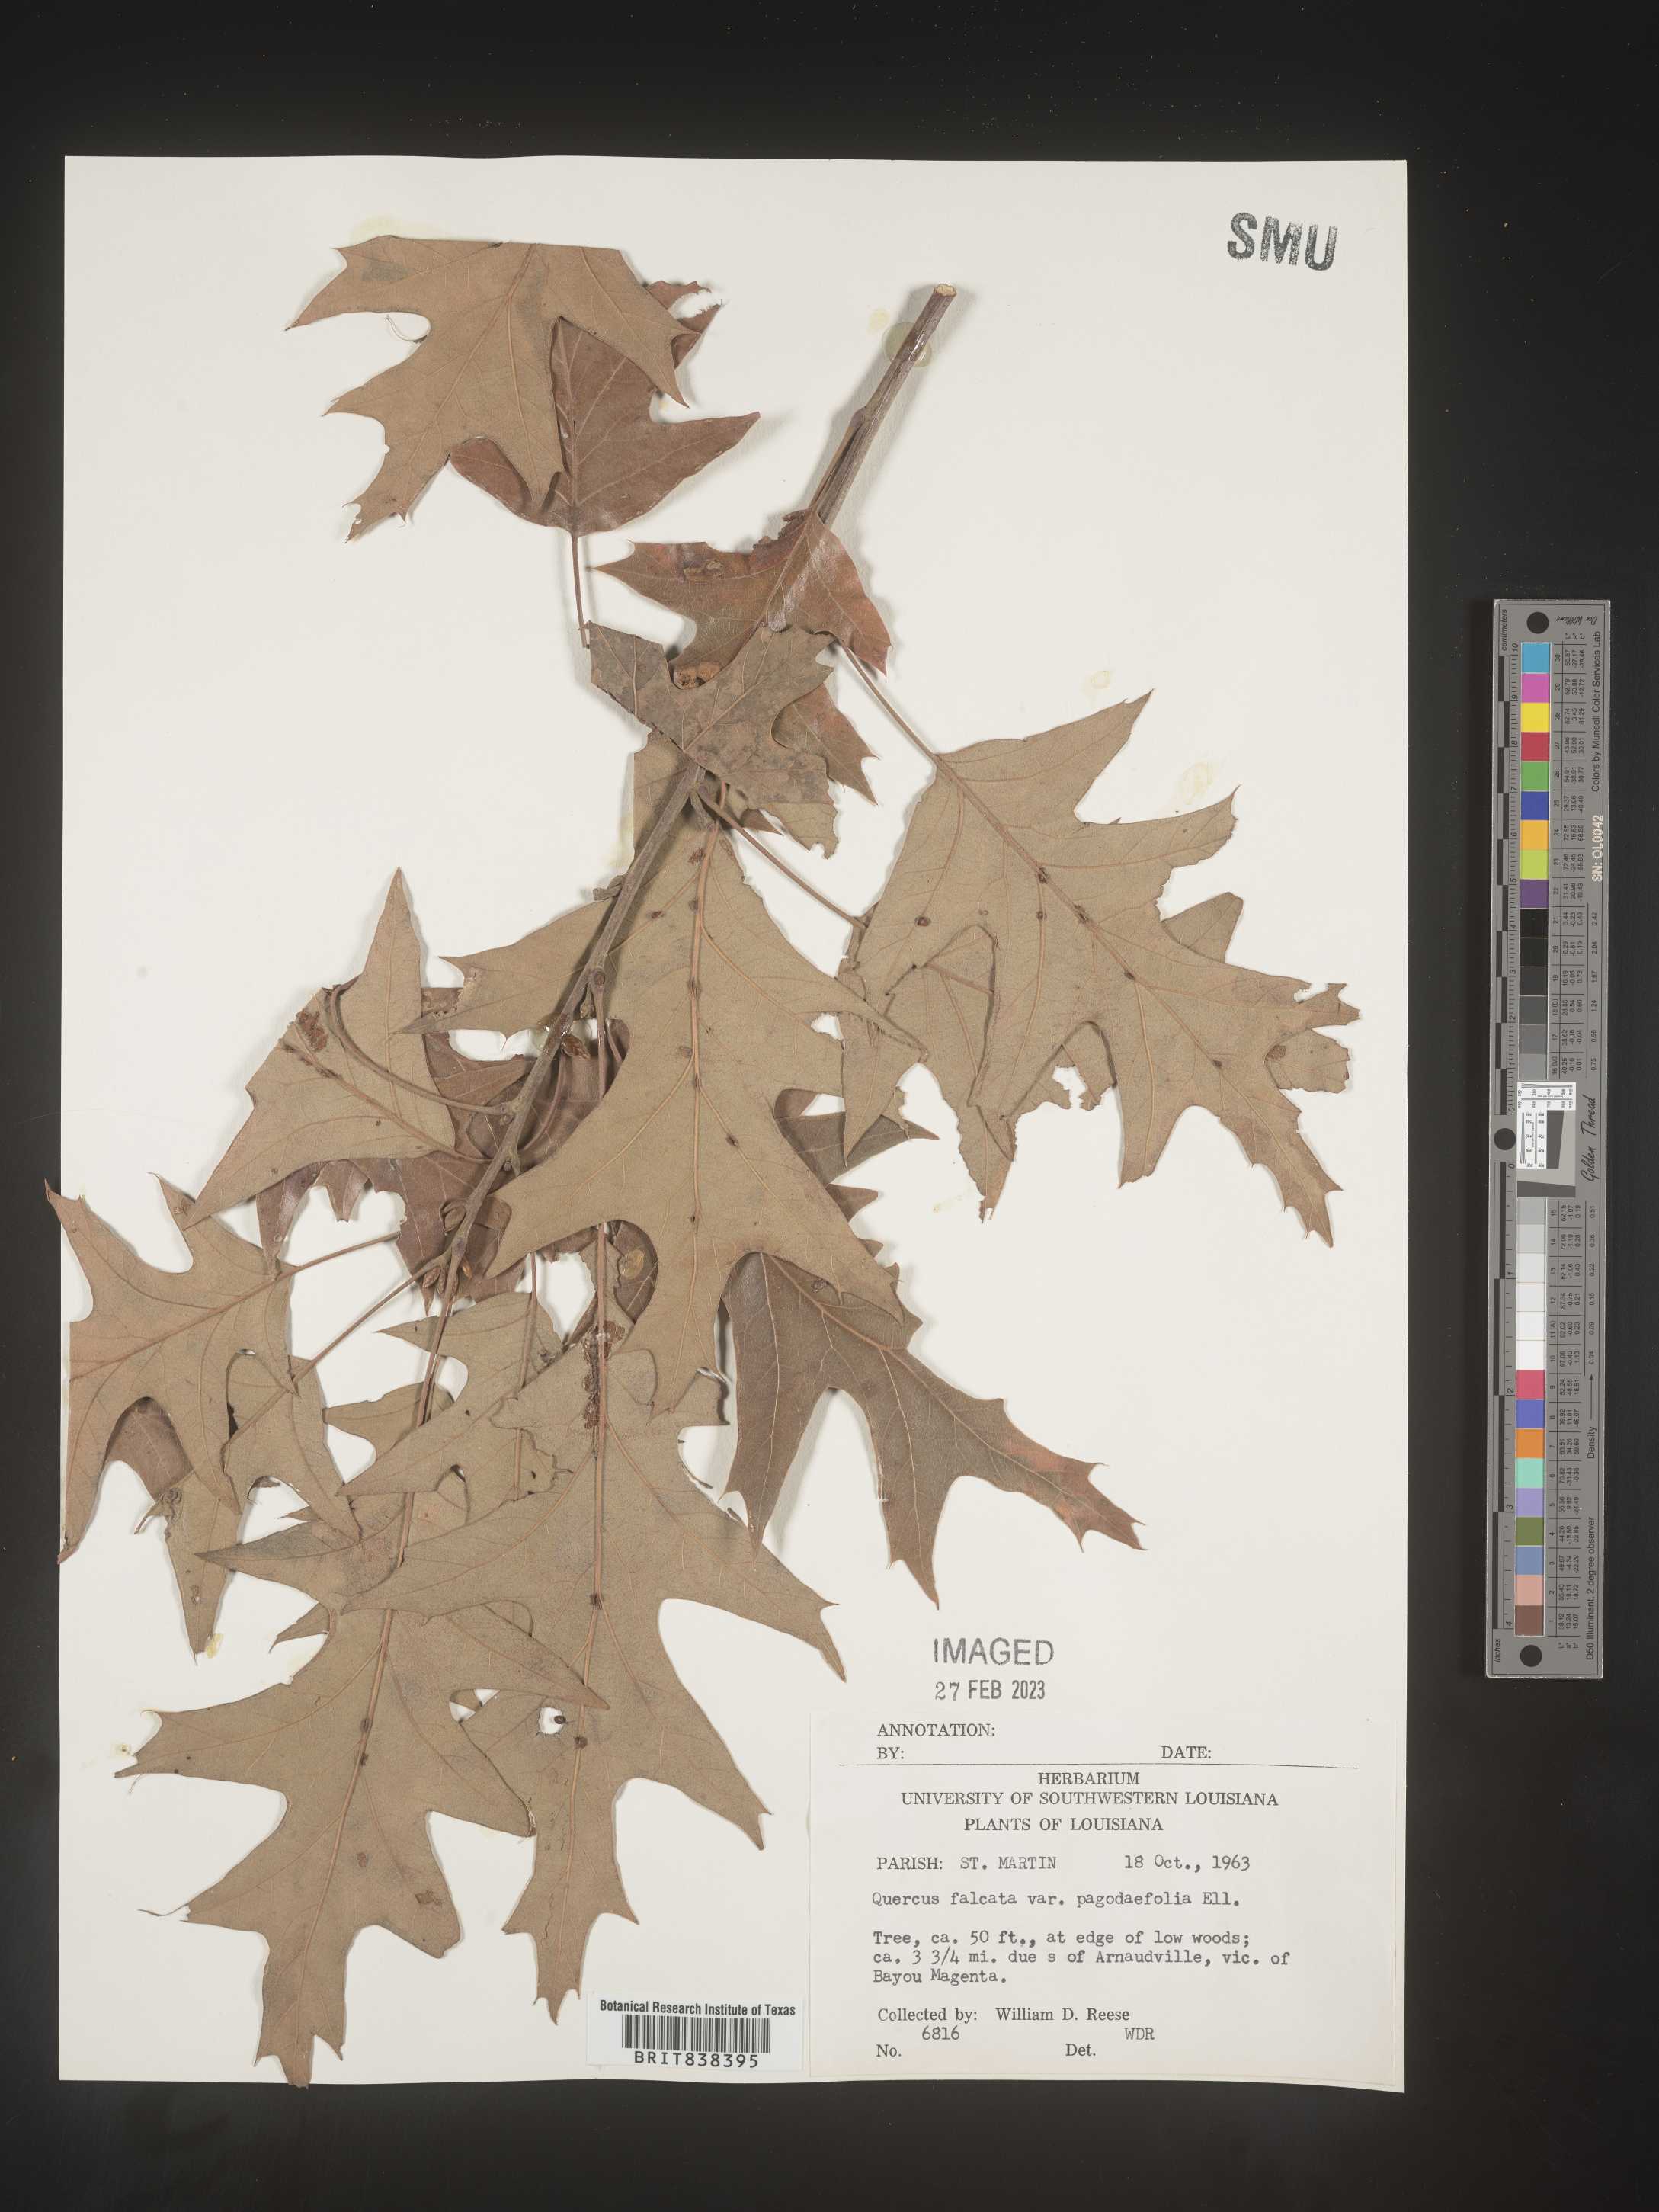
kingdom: Plantae
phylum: Tracheophyta
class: Magnoliopsida
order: Fagales
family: Fagaceae
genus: Quercus
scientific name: Quercus falcata
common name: Southern red oak
